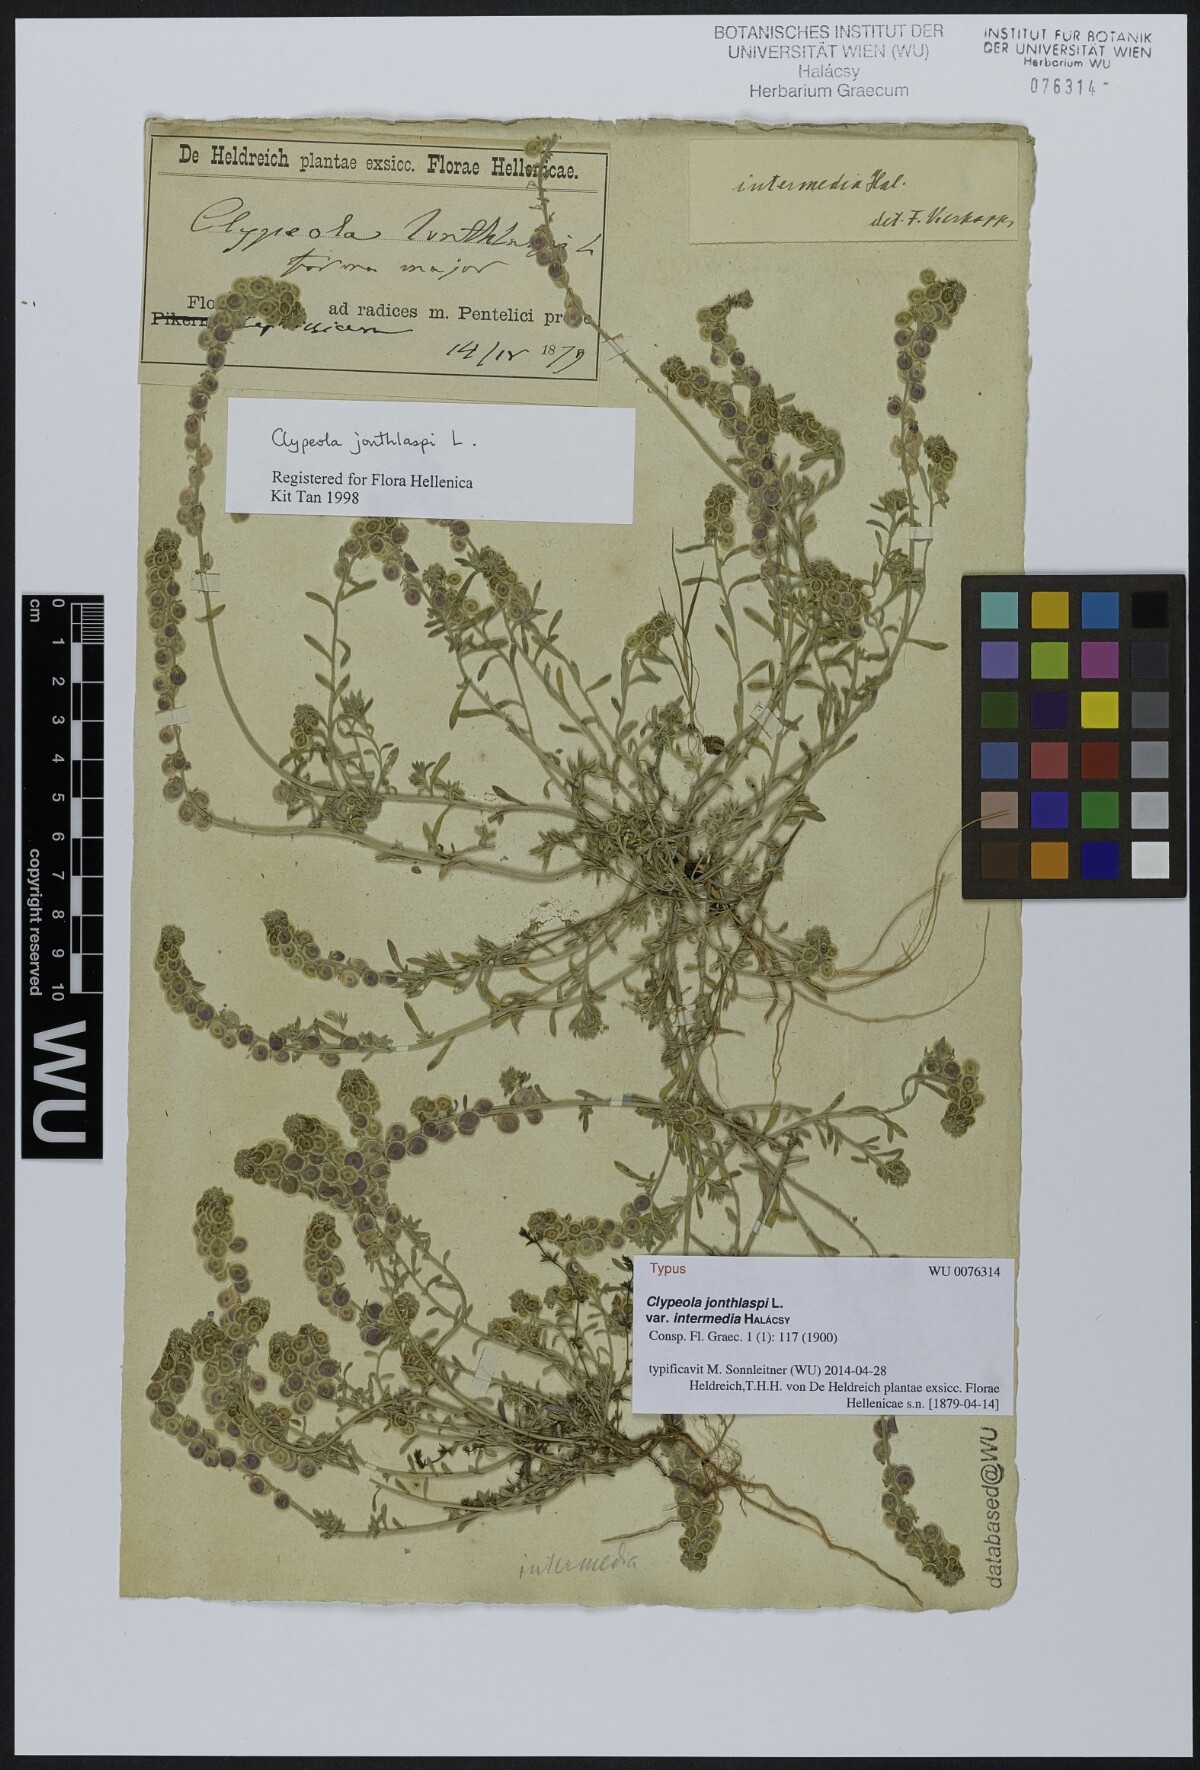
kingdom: Plantae
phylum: Tracheophyta
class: Magnoliopsida
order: Brassicales
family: Brassicaceae
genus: Clypeola
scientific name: Clypeola jonthlaspi
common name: Disk cress
